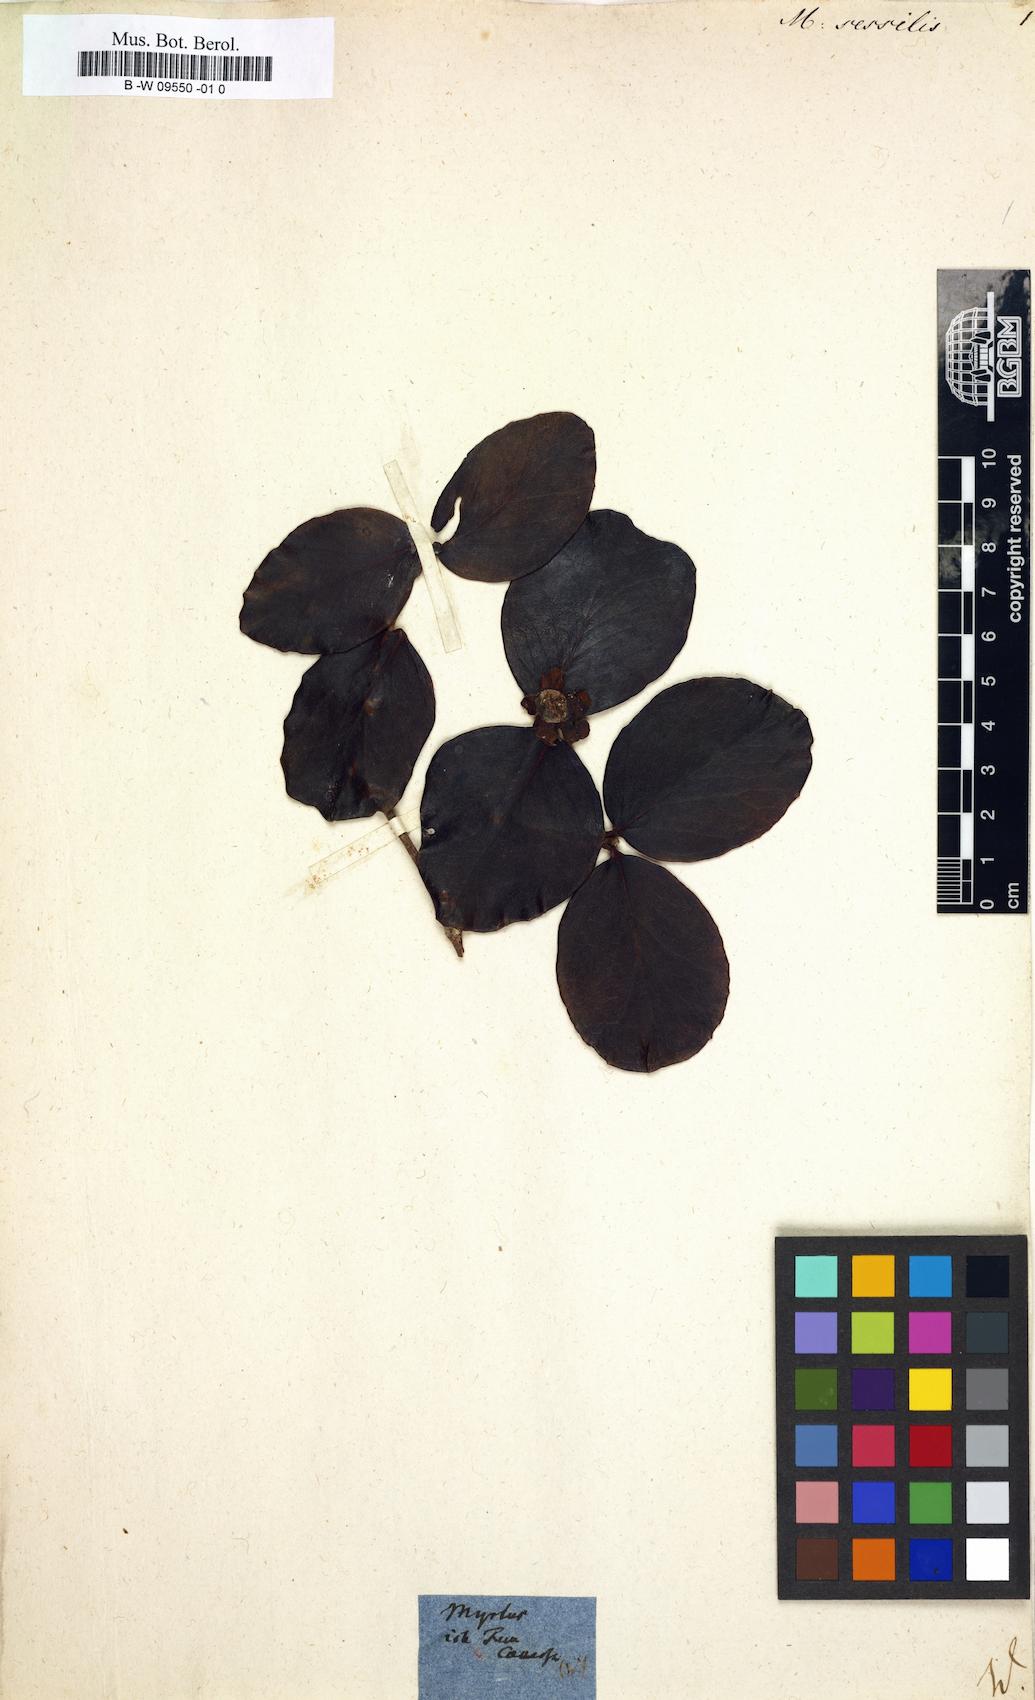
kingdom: Plantae
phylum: Tracheophyta
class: Magnoliopsida
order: Myrtales
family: Myrtaceae
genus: Syzygium
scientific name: Syzygium korthalsianum
